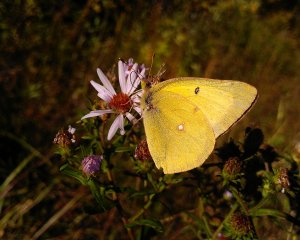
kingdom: Animalia
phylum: Arthropoda
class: Insecta
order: Lepidoptera
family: Pieridae
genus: Colias
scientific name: Colias philodice
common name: Clouded Sulphur
